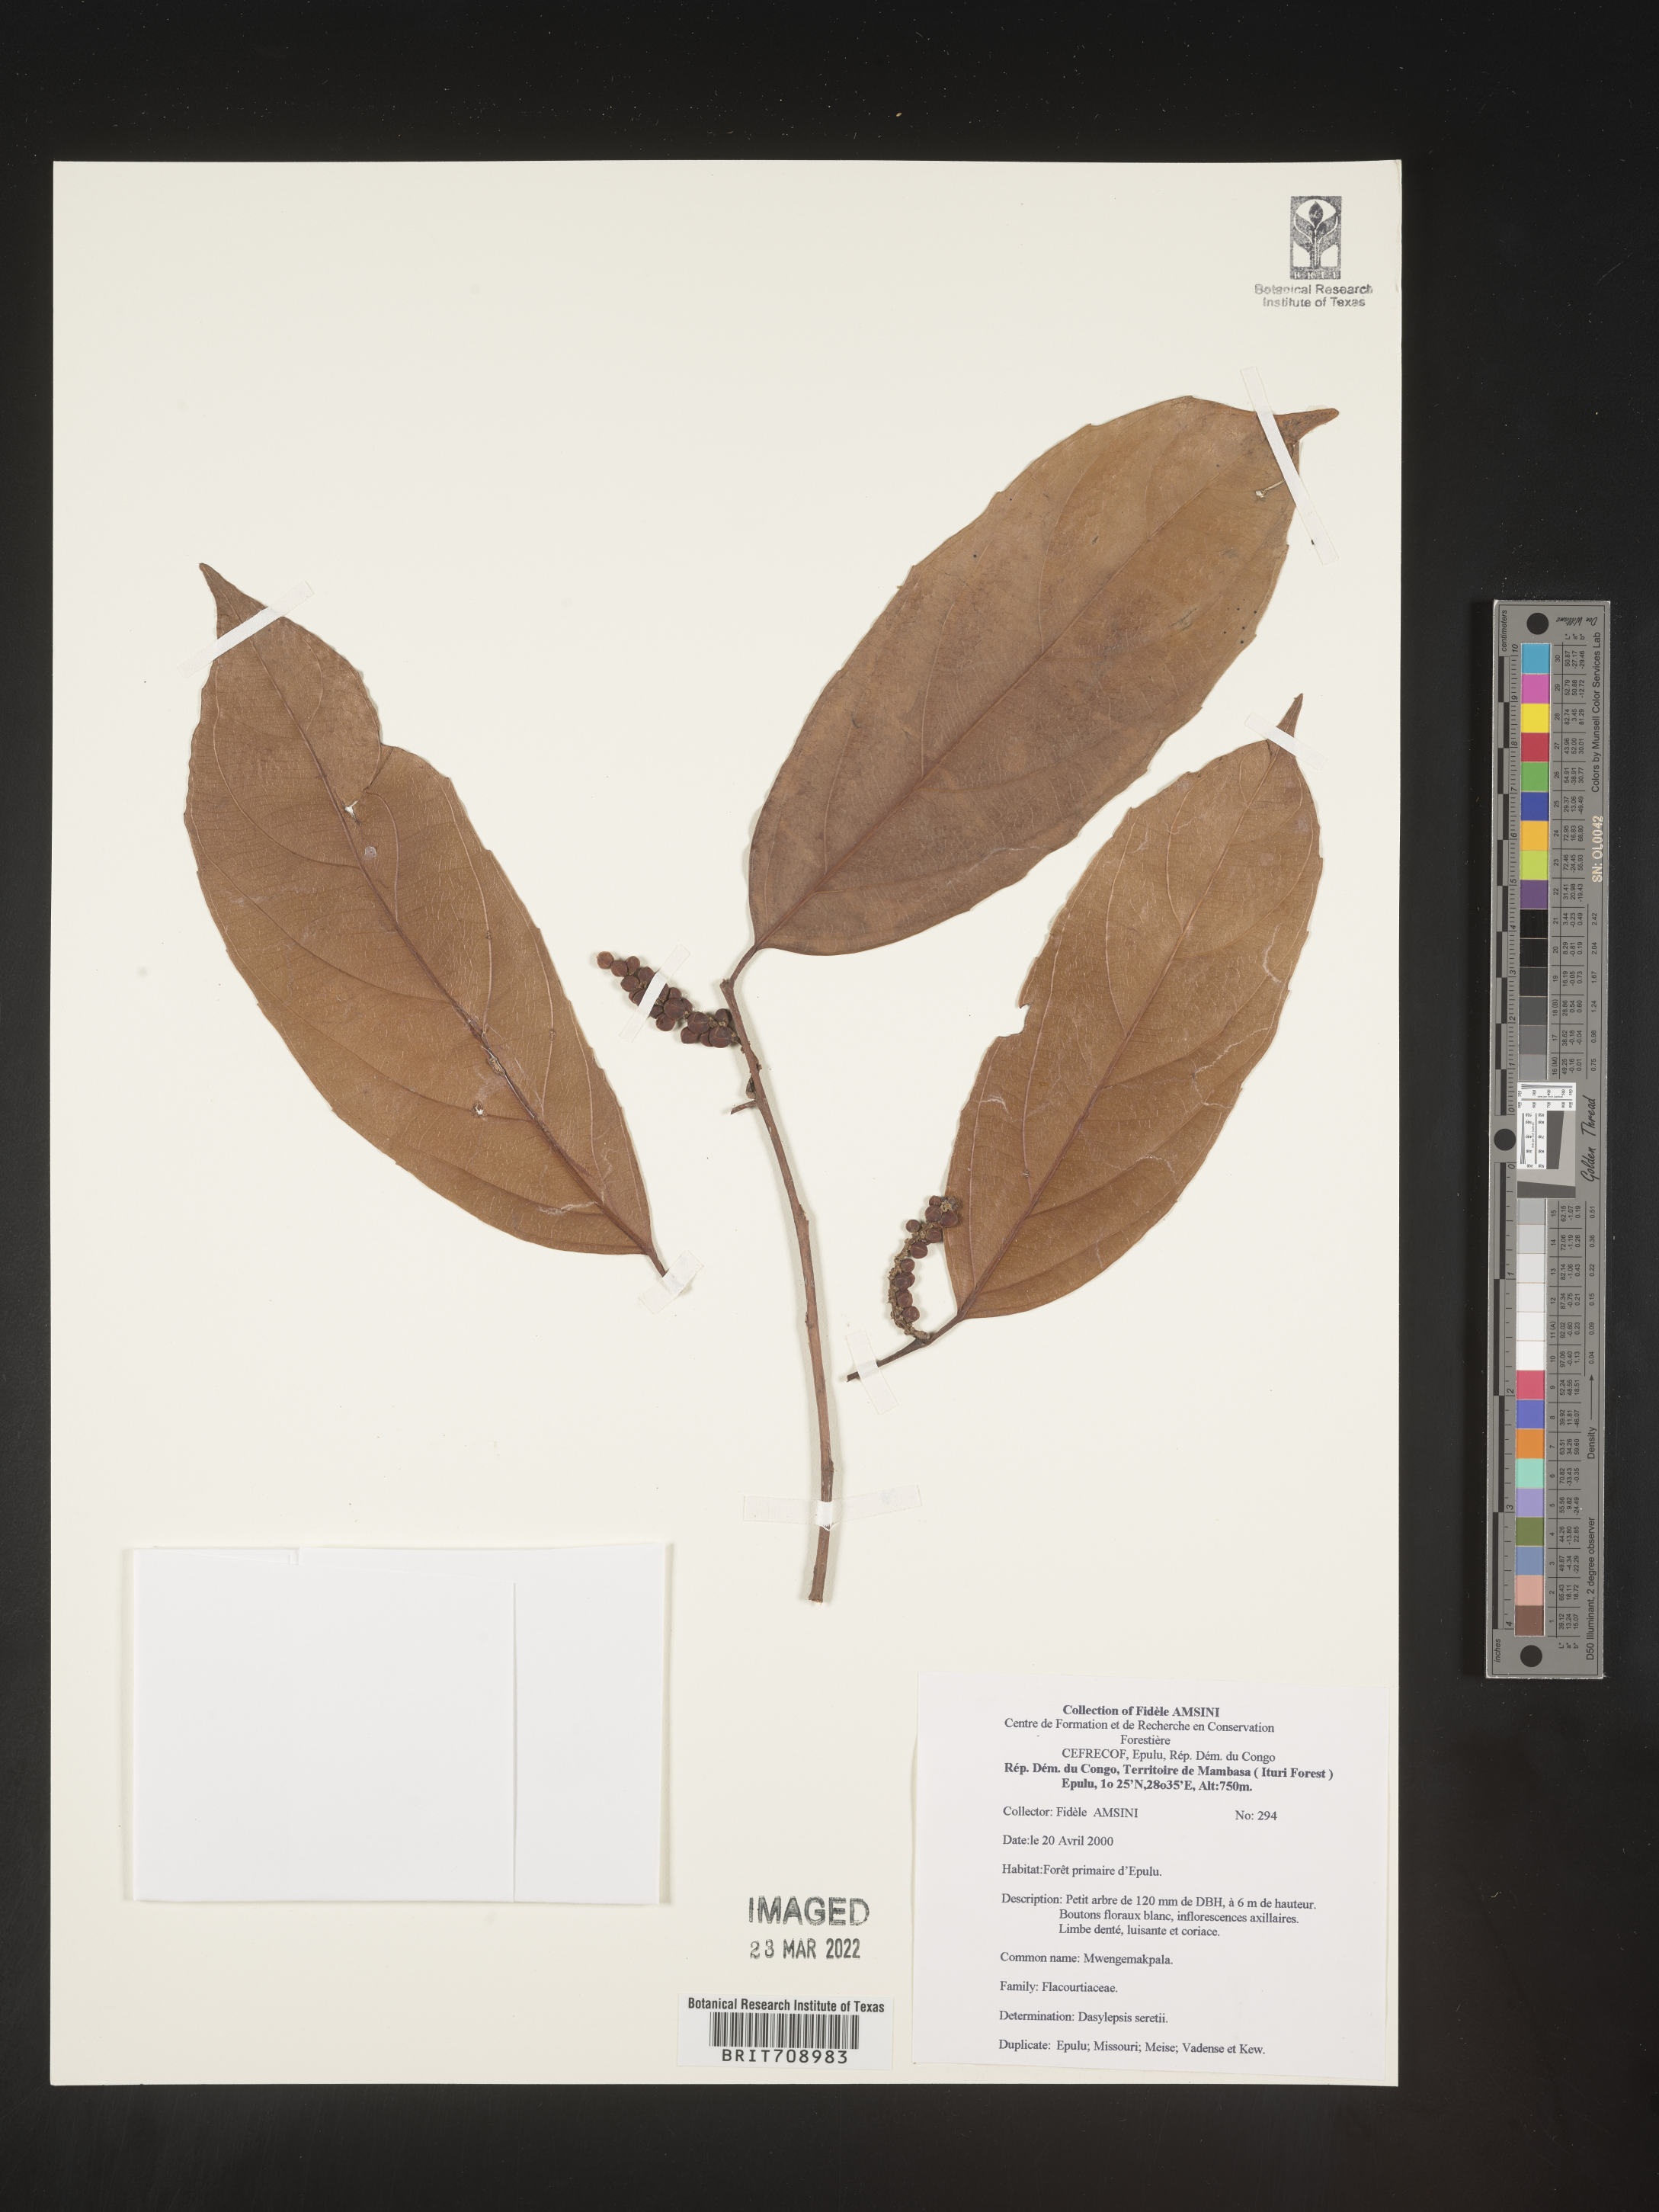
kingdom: Plantae
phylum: Tracheophyta
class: Magnoliopsida
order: Malpighiales
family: Achariaceae
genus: Dasylepis
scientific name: Dasylepis
